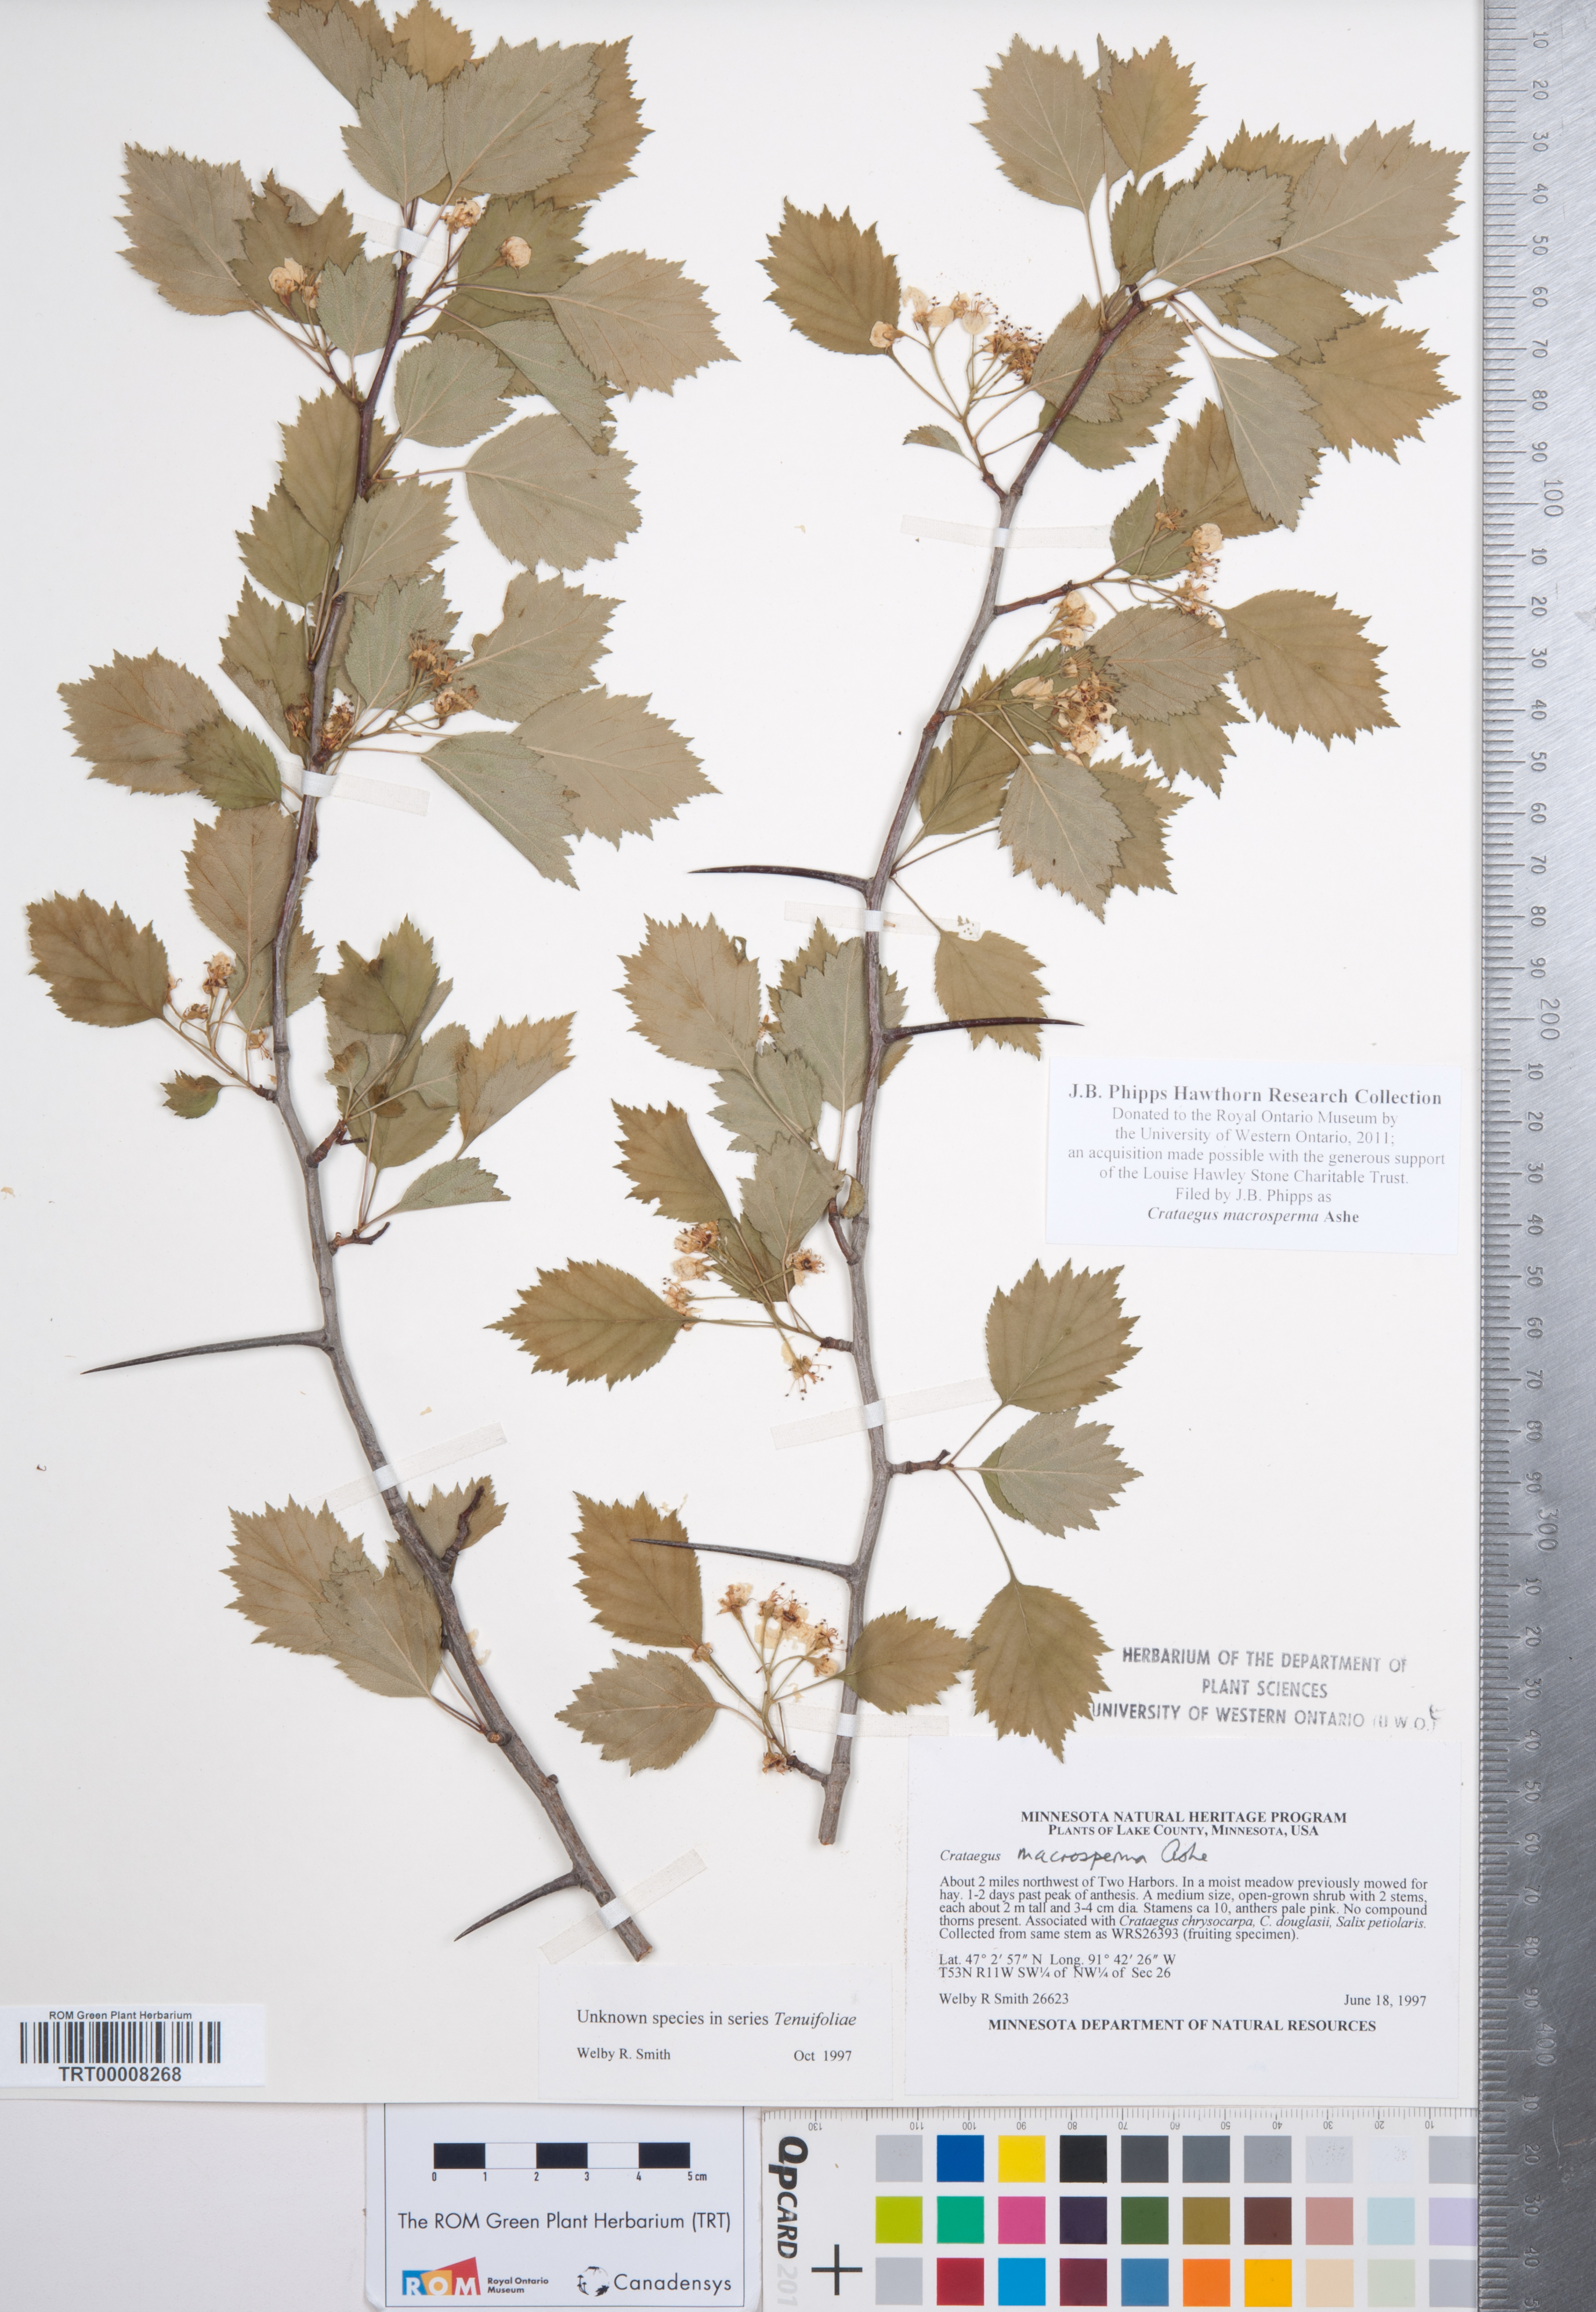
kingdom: Plantae
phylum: Tracheophyta
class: Magnoliopsida
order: Rosales
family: Rosaceae
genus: Crataegus
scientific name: Crataegus macrosperma
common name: Variable hawthorn
